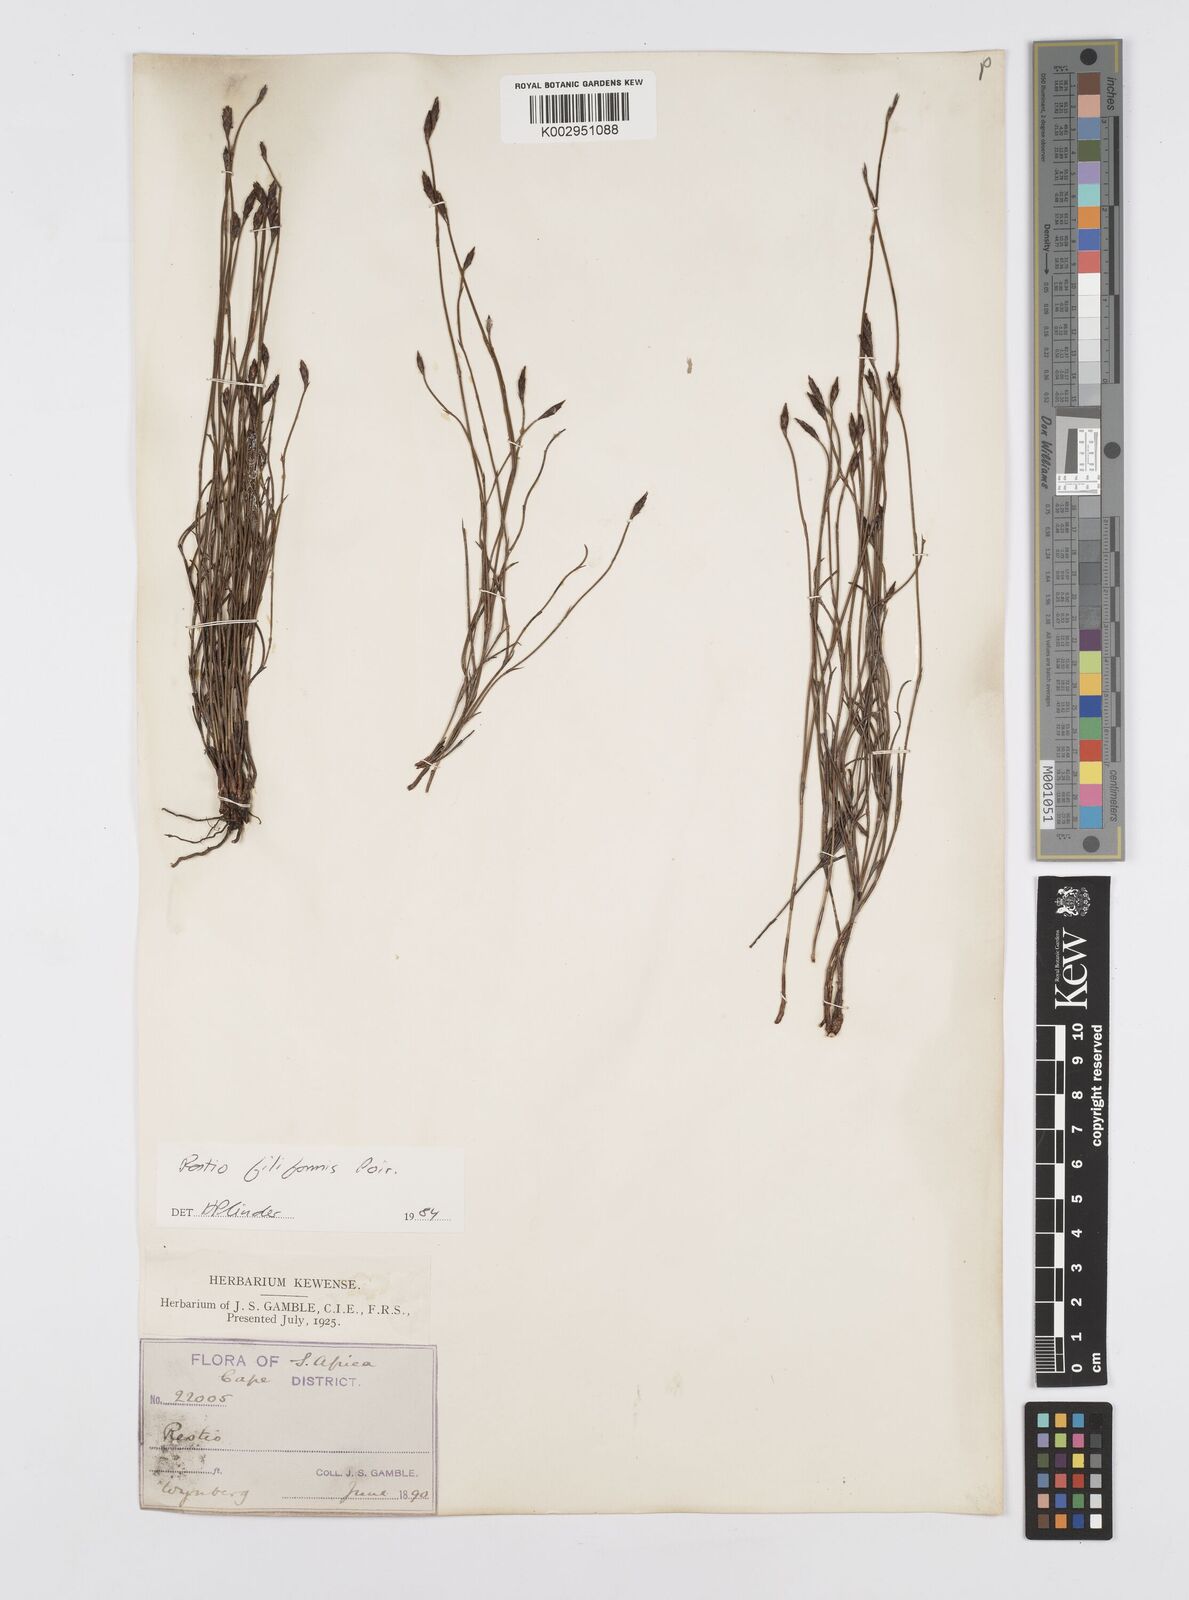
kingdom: Plantae
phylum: Tracheophyta
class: Liliopsida
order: Poales
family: Restionaceae
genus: Restio
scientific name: Restio filiformis
